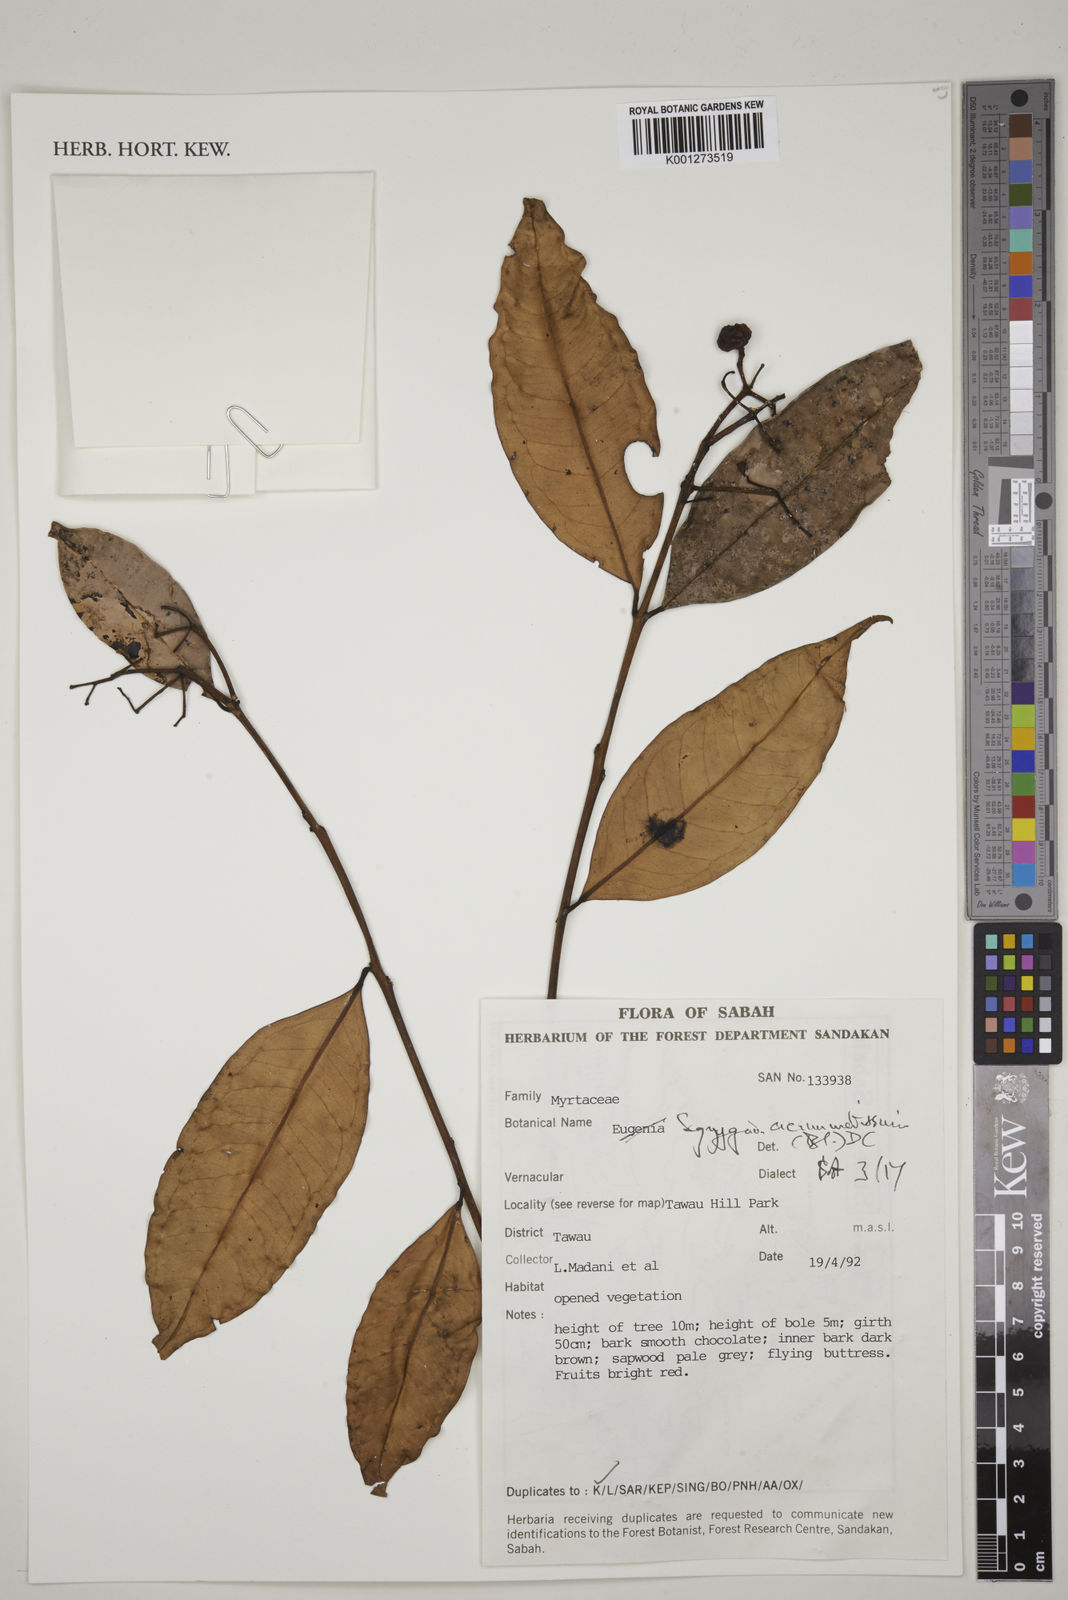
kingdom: Plantae
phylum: Tracheophyta
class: Magnoliopsida
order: Myrtales
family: Myrtaceae
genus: Syzygium
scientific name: Syzygium acuminatissimum
